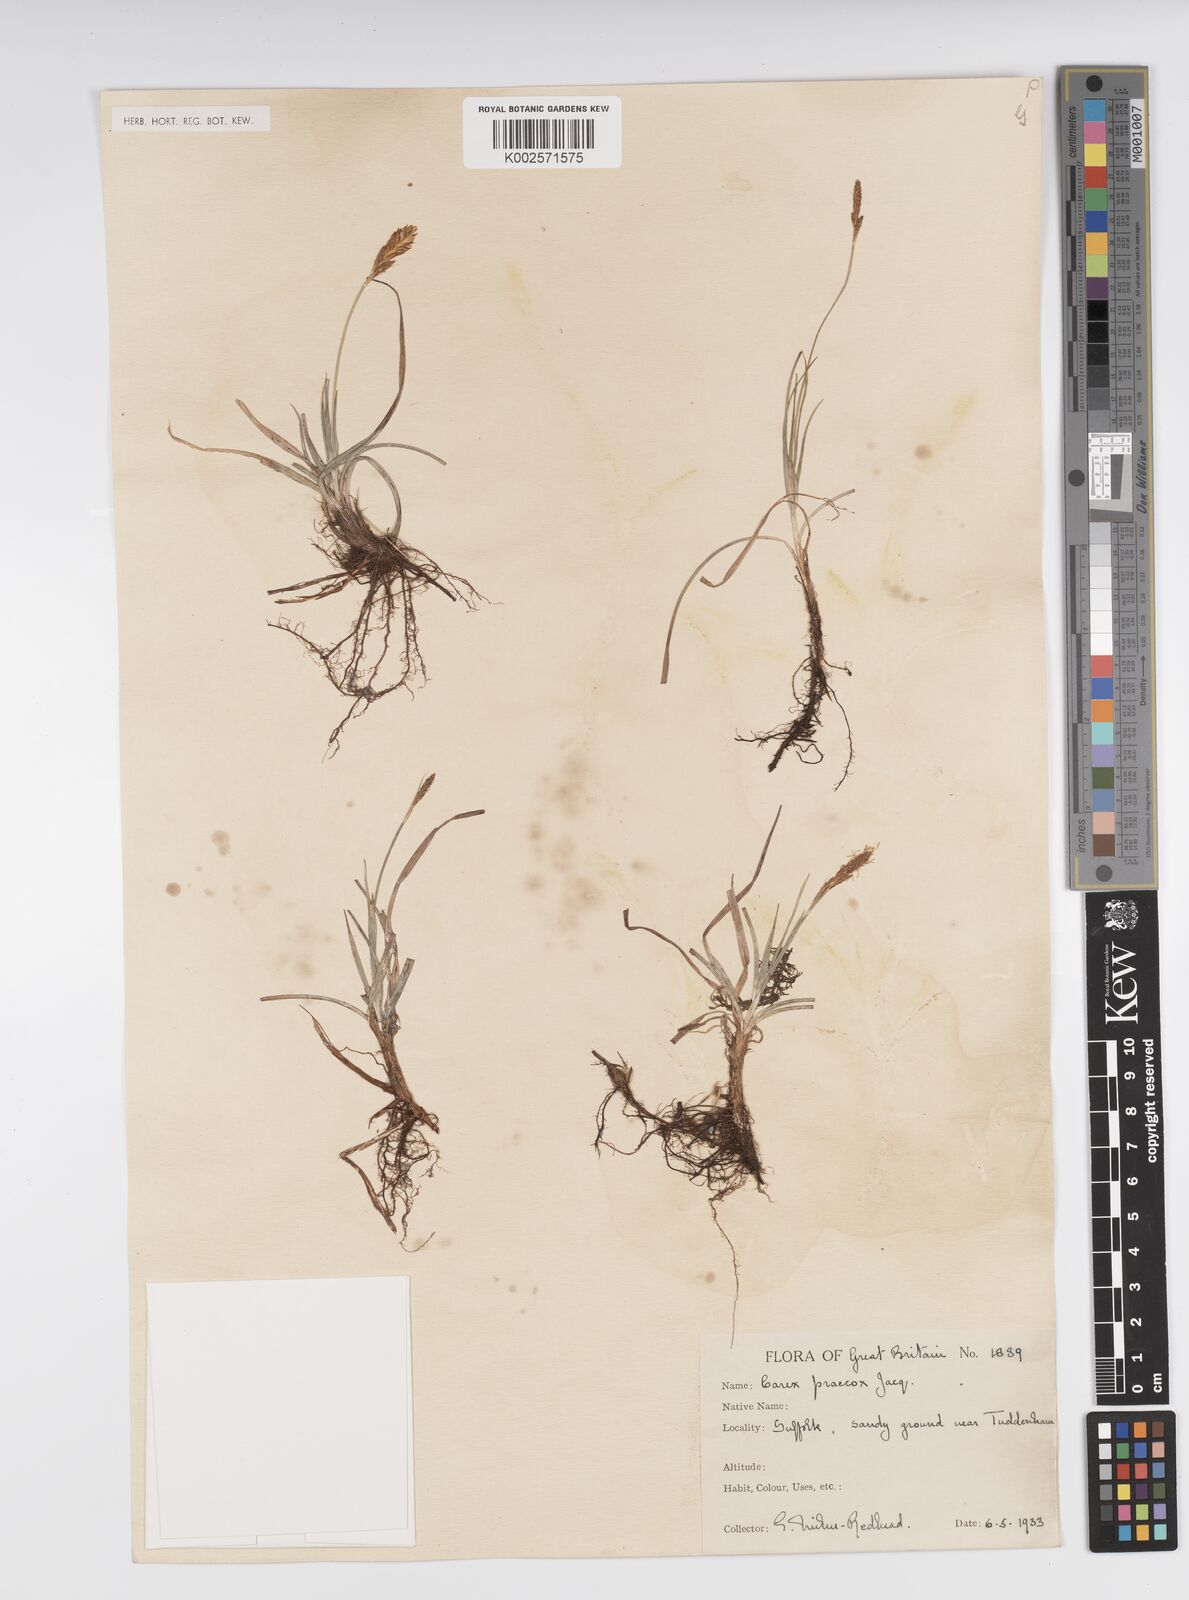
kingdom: Plantae
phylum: Tracheophyta
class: Liliopsida
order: Poales
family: Cyperaceae
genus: Carex
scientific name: Carex caryophyllea
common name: Spring sedge
